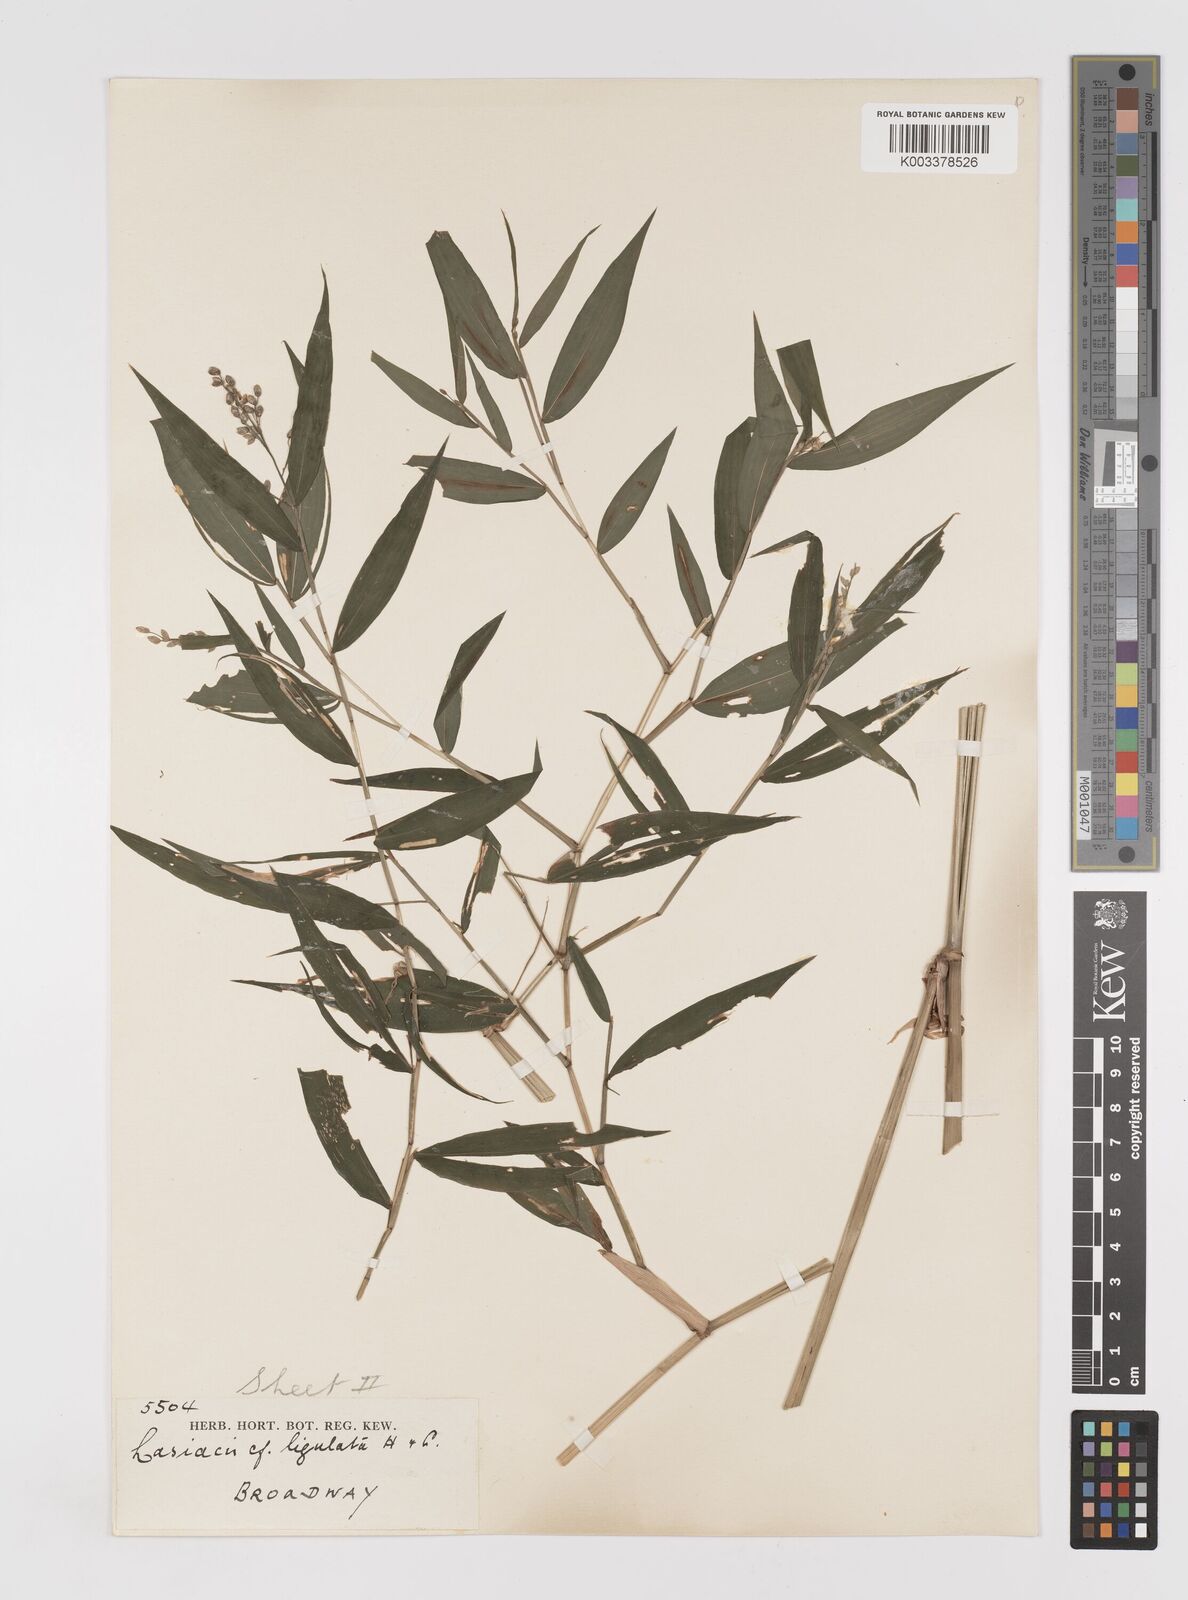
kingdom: Plantae
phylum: Tracheophyta
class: Liliopsida
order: Poales
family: Poaceae
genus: Lasiacis
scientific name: Lasiacis ligulata
